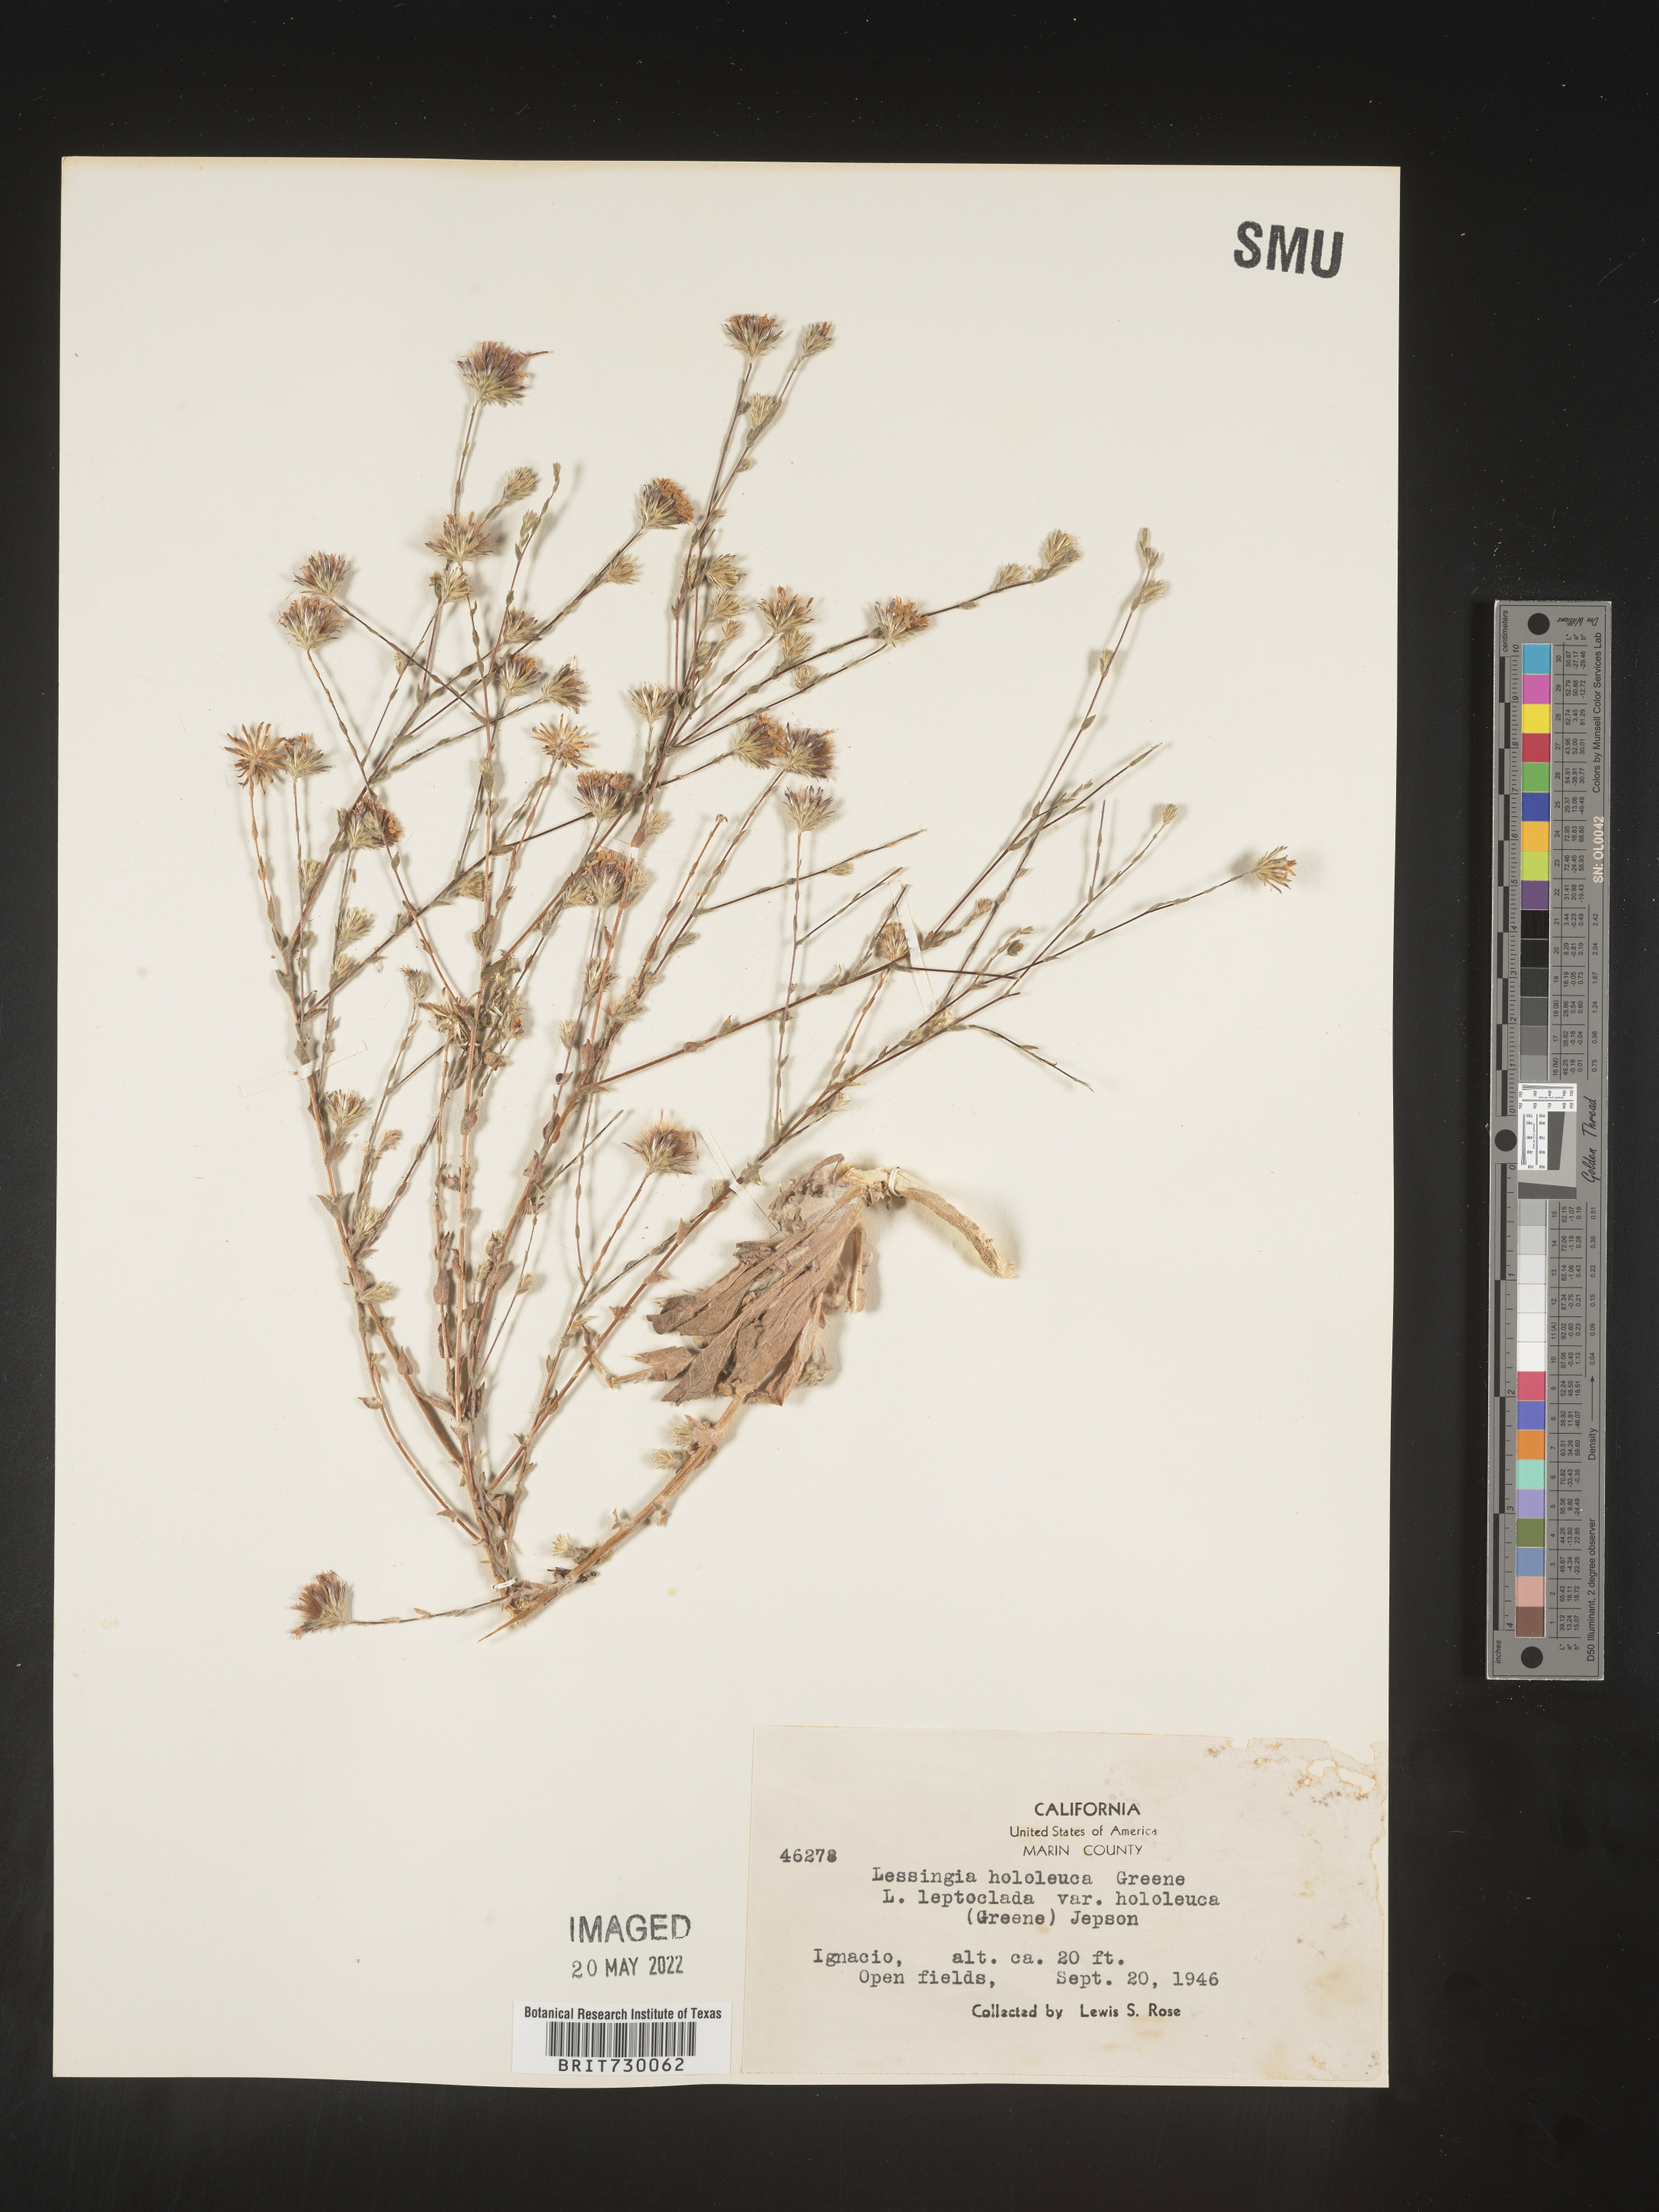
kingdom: Plantae
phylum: Tracheophyta
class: Magnoliopsida
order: Asterales
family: Asteraceae
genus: Lessingia
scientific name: Lessingia
